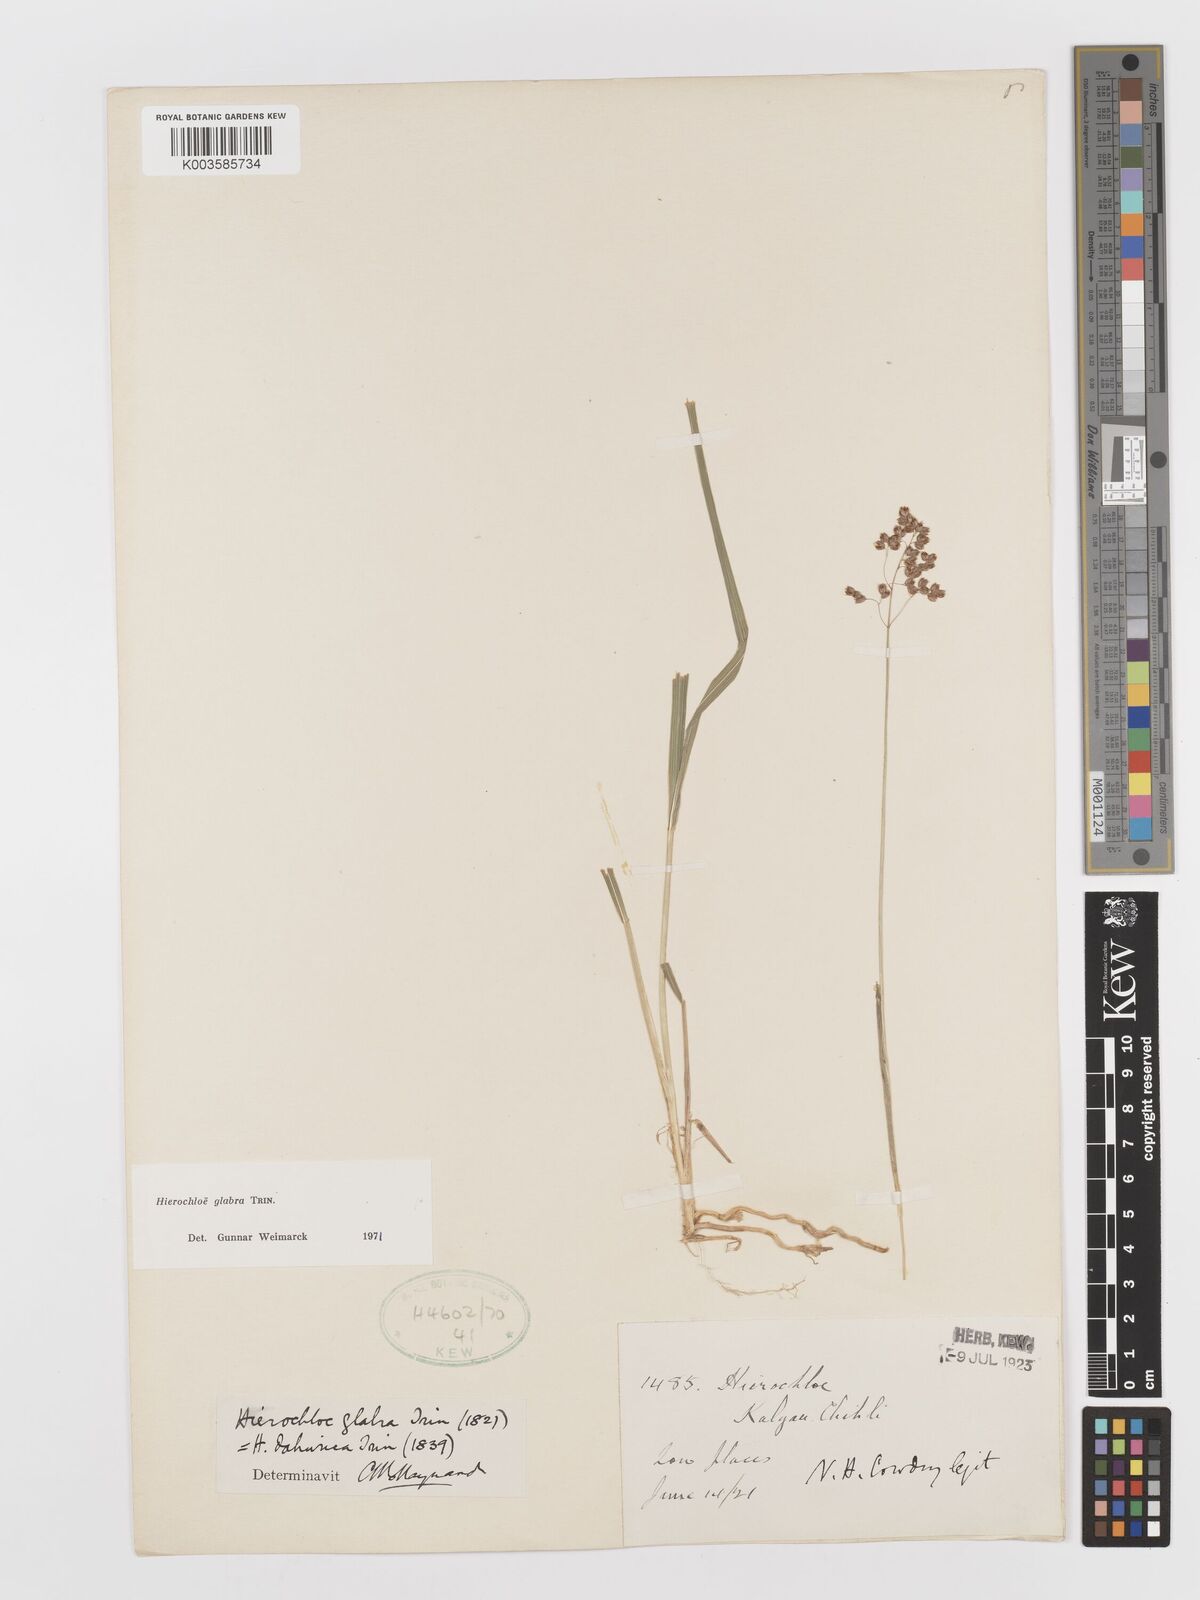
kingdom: Plantae
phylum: Tracheophyta
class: Liliopsida
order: Poales
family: Poaceae
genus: Anthoxanthum
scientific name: Anthoxanthum glabrum
